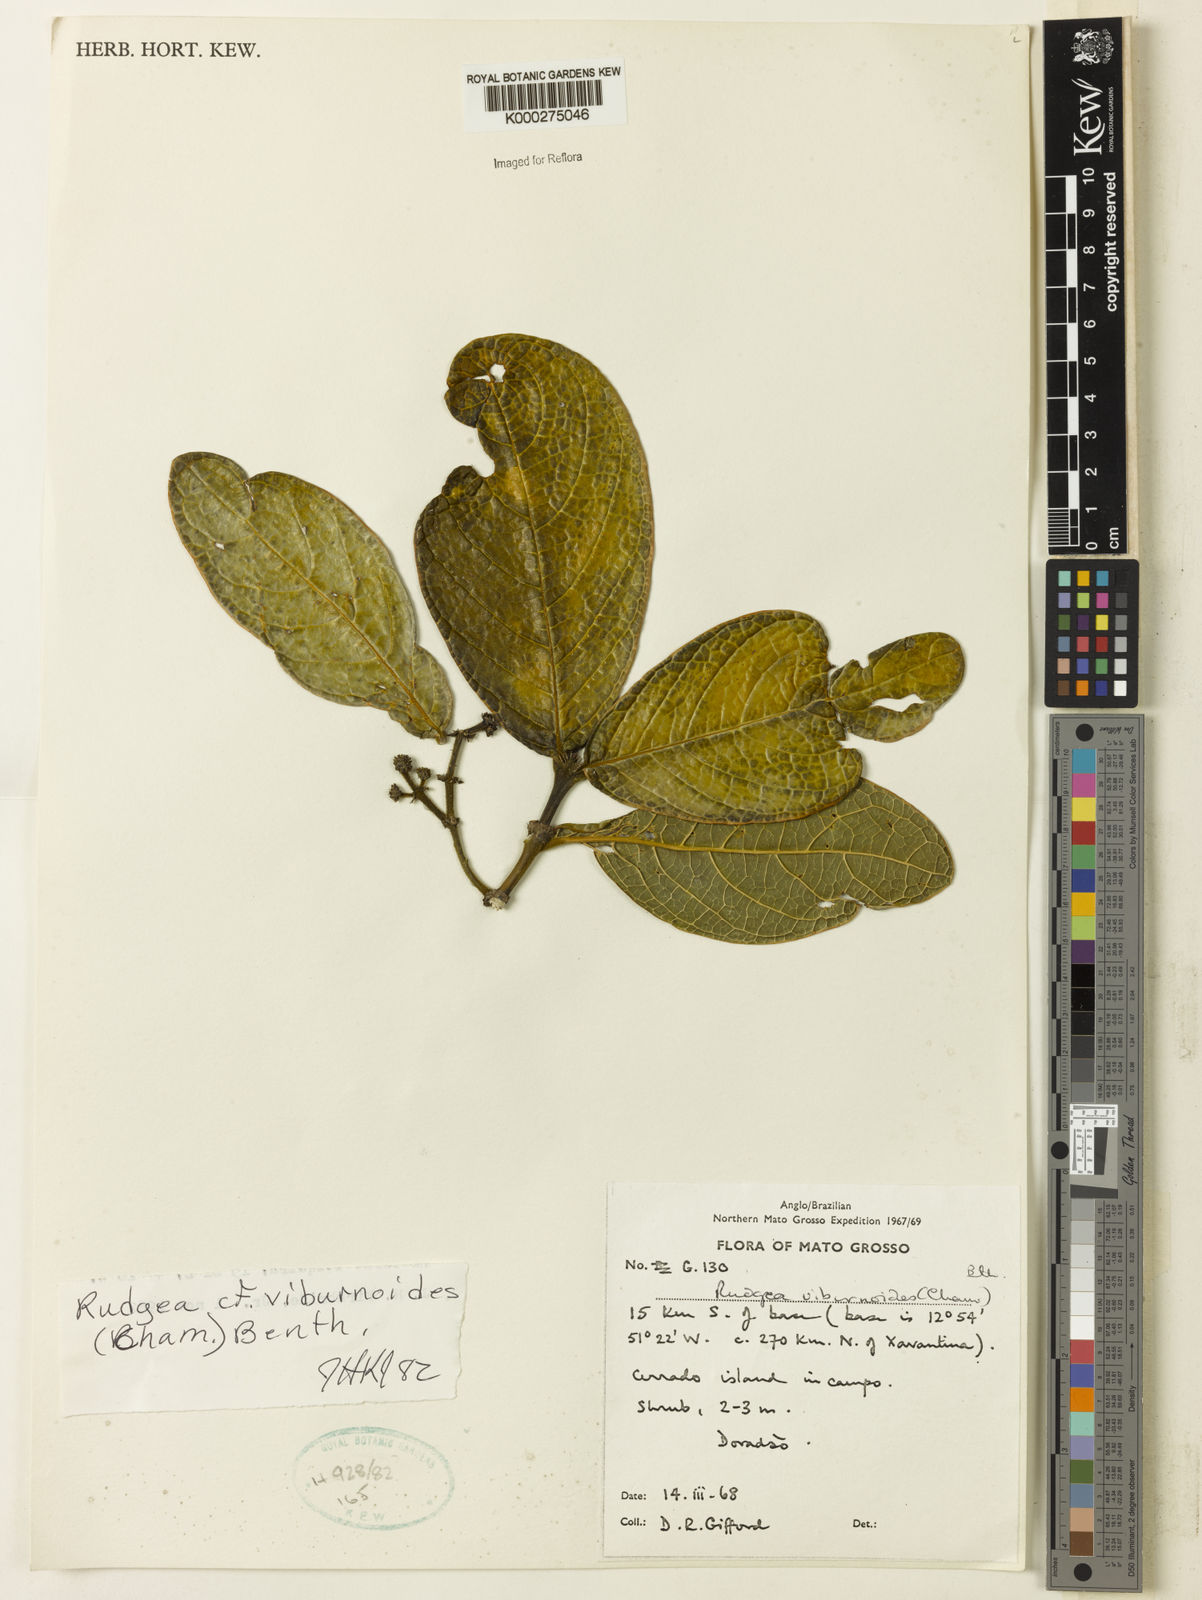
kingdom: Plantae
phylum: Tracheophyta
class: Magnoliopsida
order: Gentianales
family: Rubiaceae
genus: Rudgea
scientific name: Rudgea viburnoides
